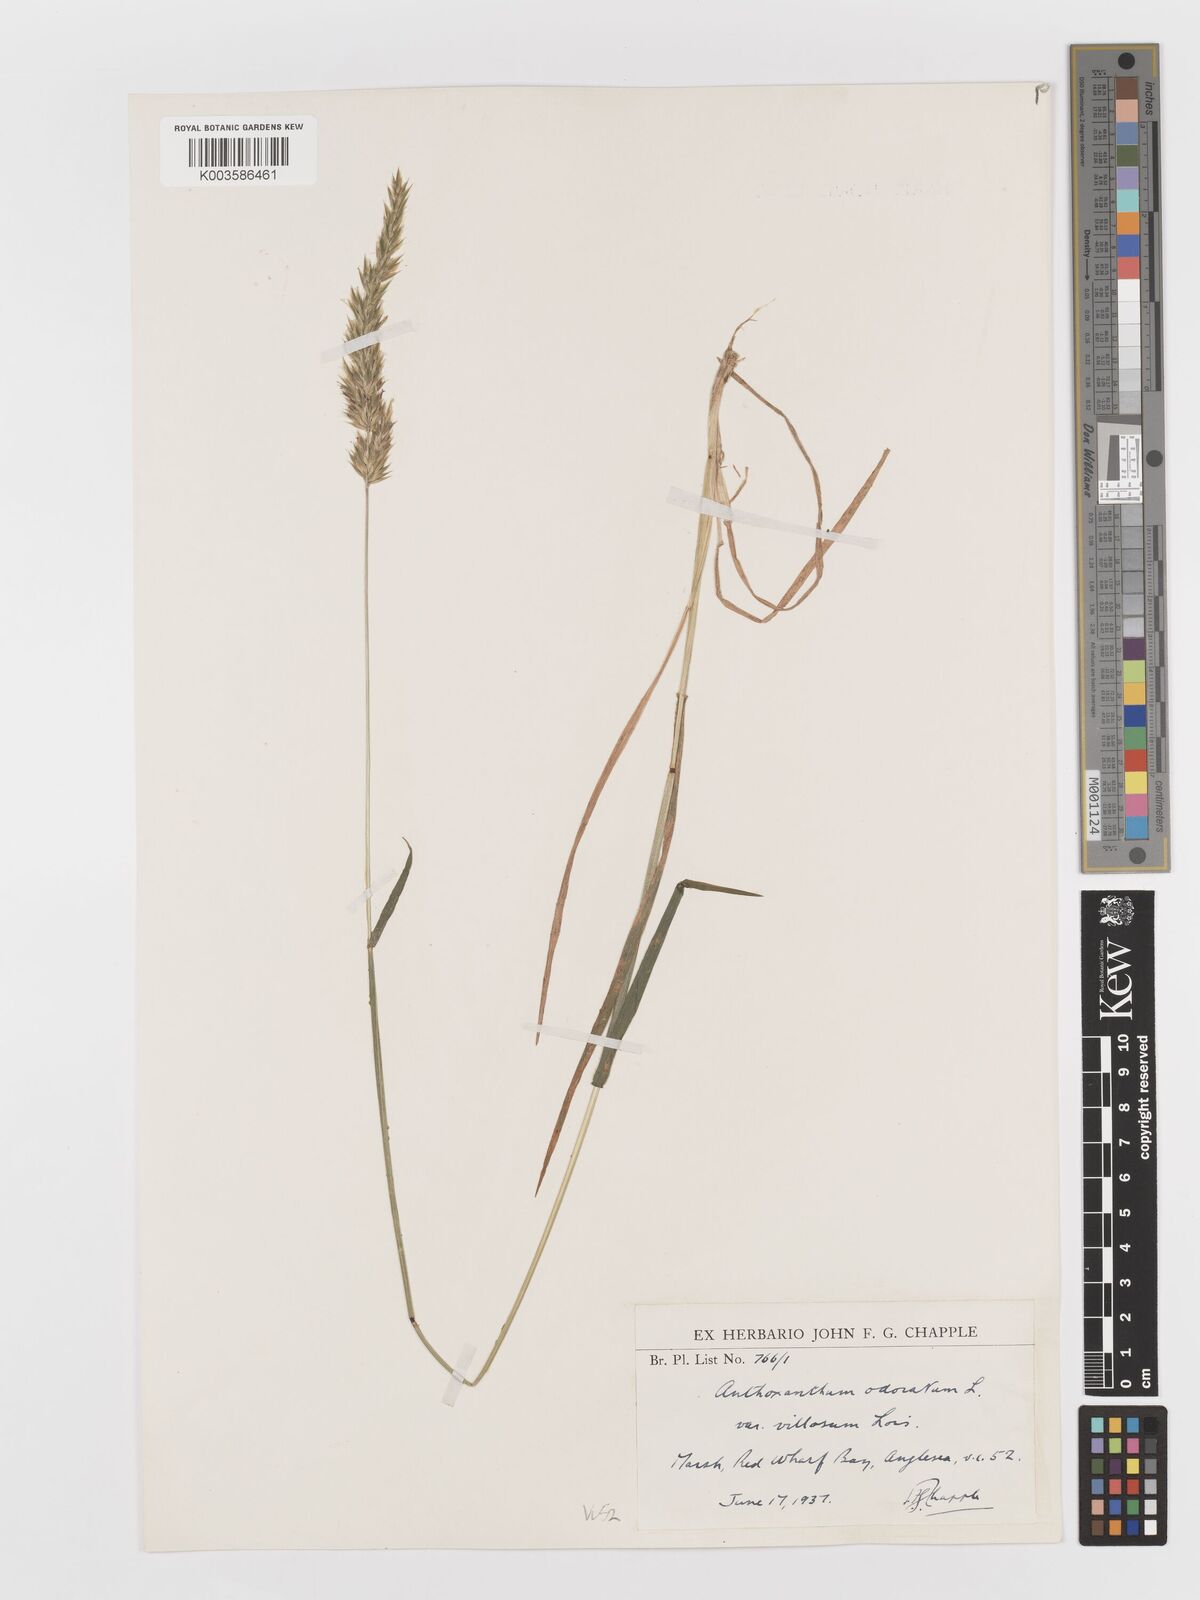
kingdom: Plantae
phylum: Tracheophyta
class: Liliopsida
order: Poales
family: Poaceae
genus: Anthoxanthum
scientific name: Anthoxanthum odoratum
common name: Sweet vernalgrass
